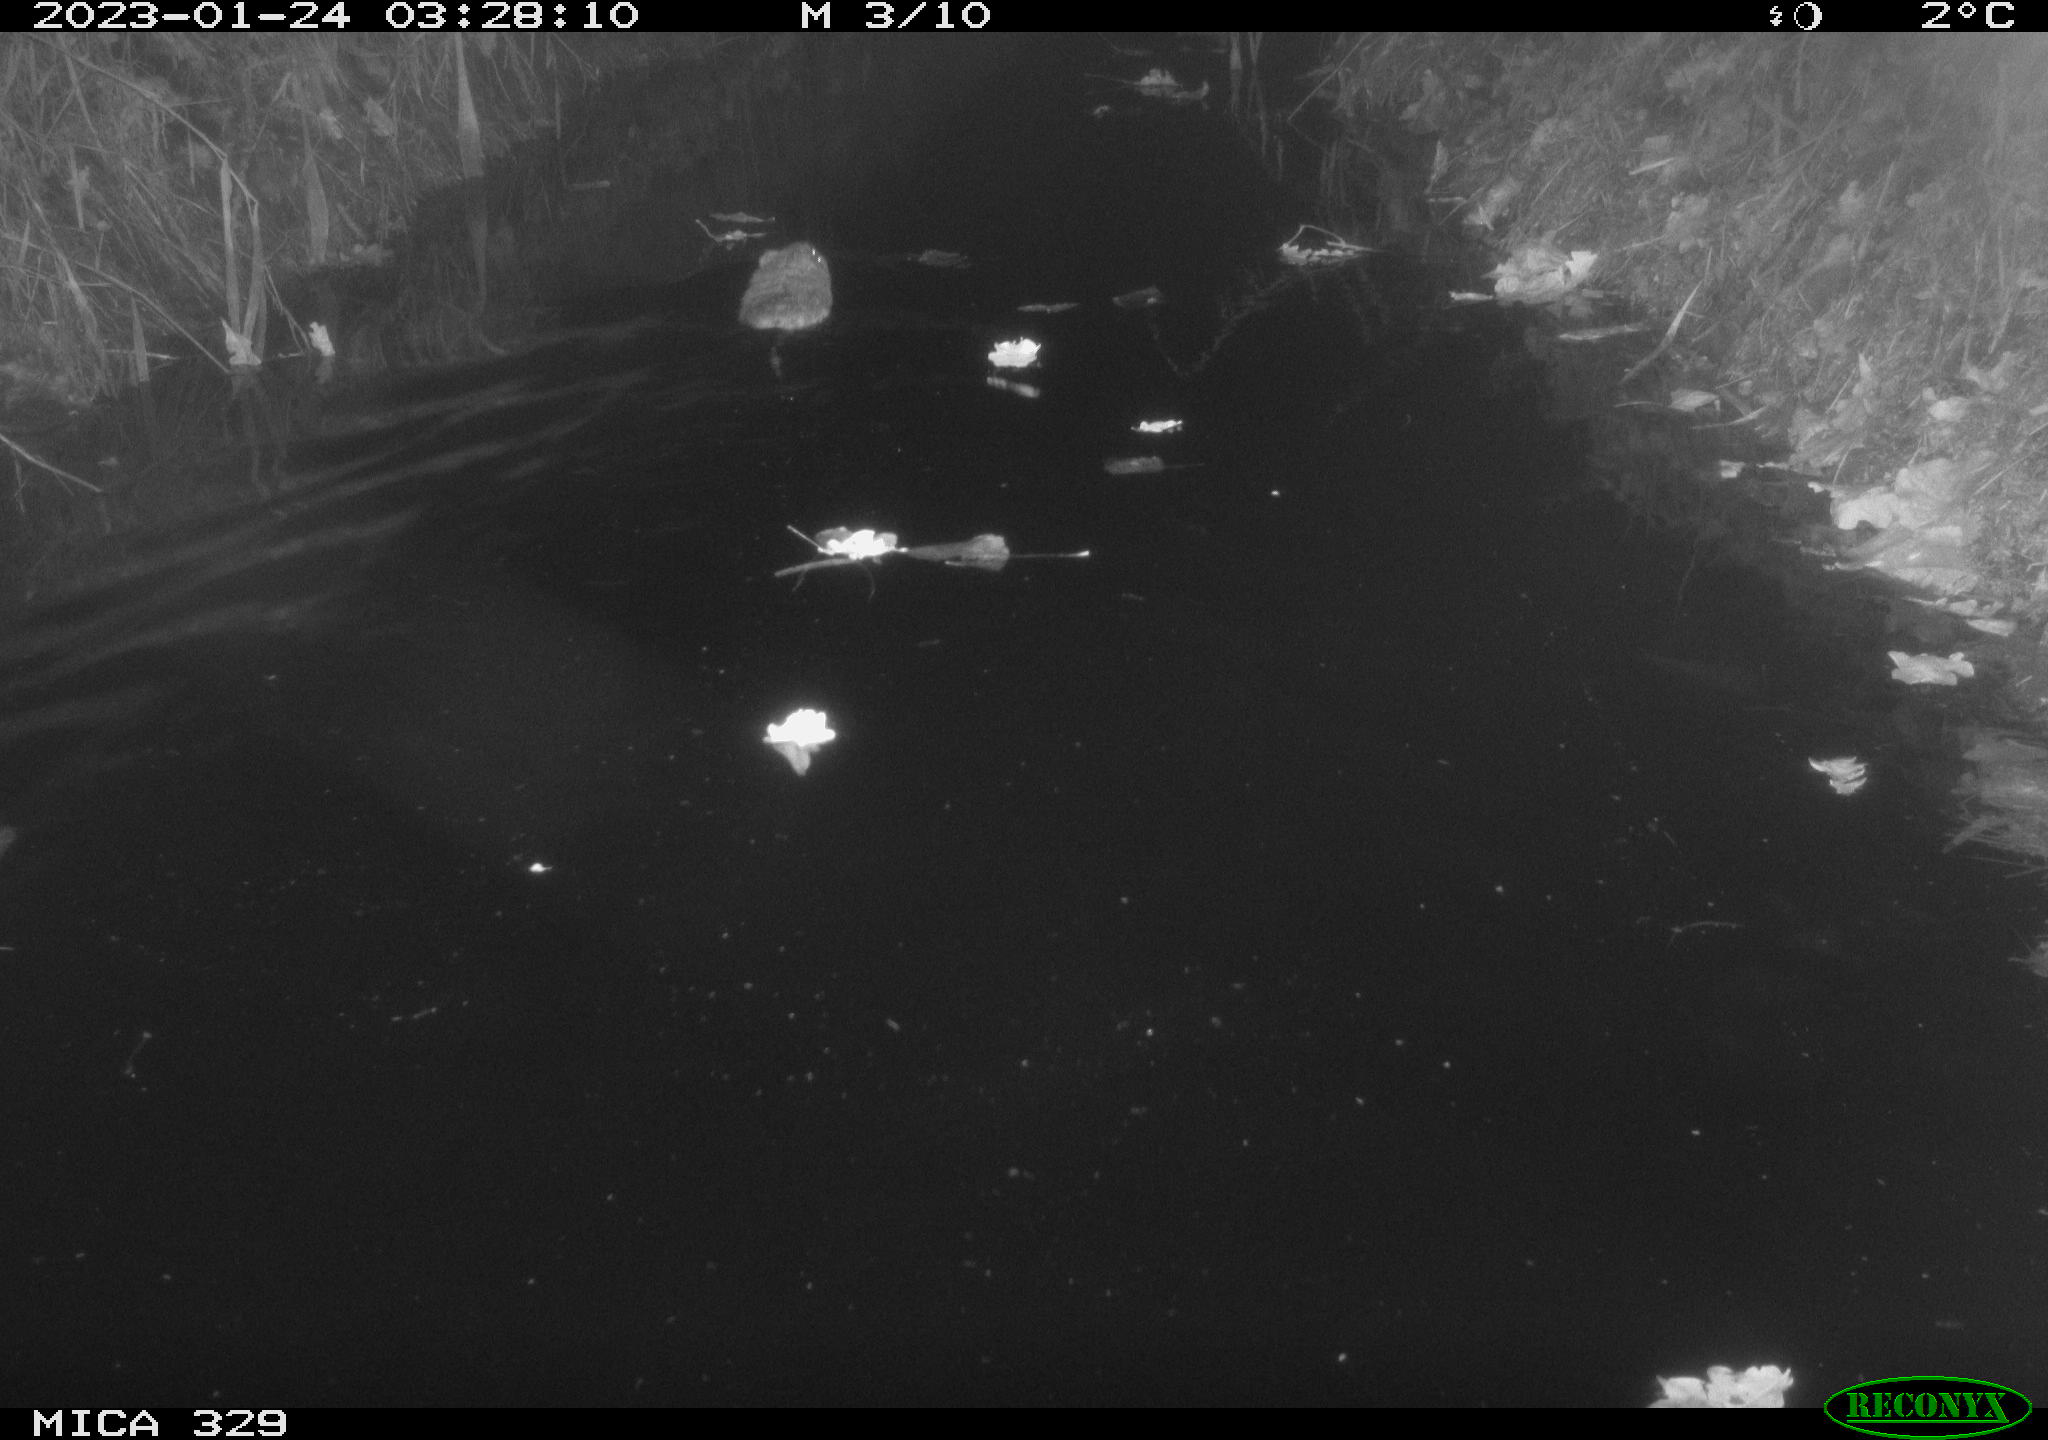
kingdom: Animalia
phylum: Chordata
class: Mammalia
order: Rodentia
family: Cricetidae
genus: Ondatra
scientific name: Ondatra zibethicus
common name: Muskrat
